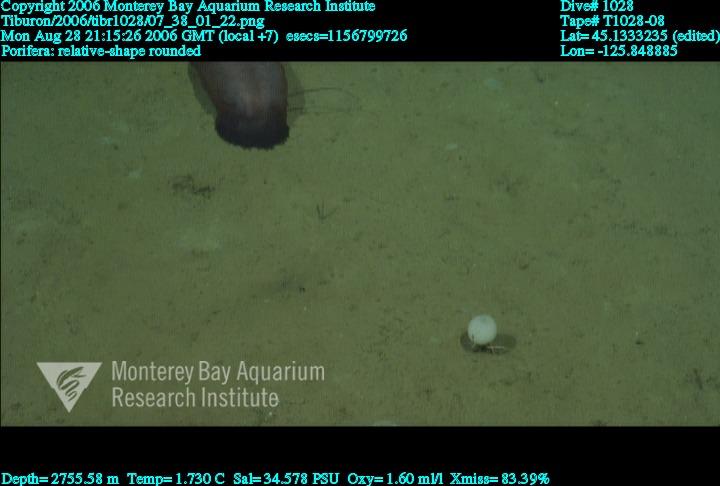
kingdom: Animalia
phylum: Porifera
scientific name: Porifera
